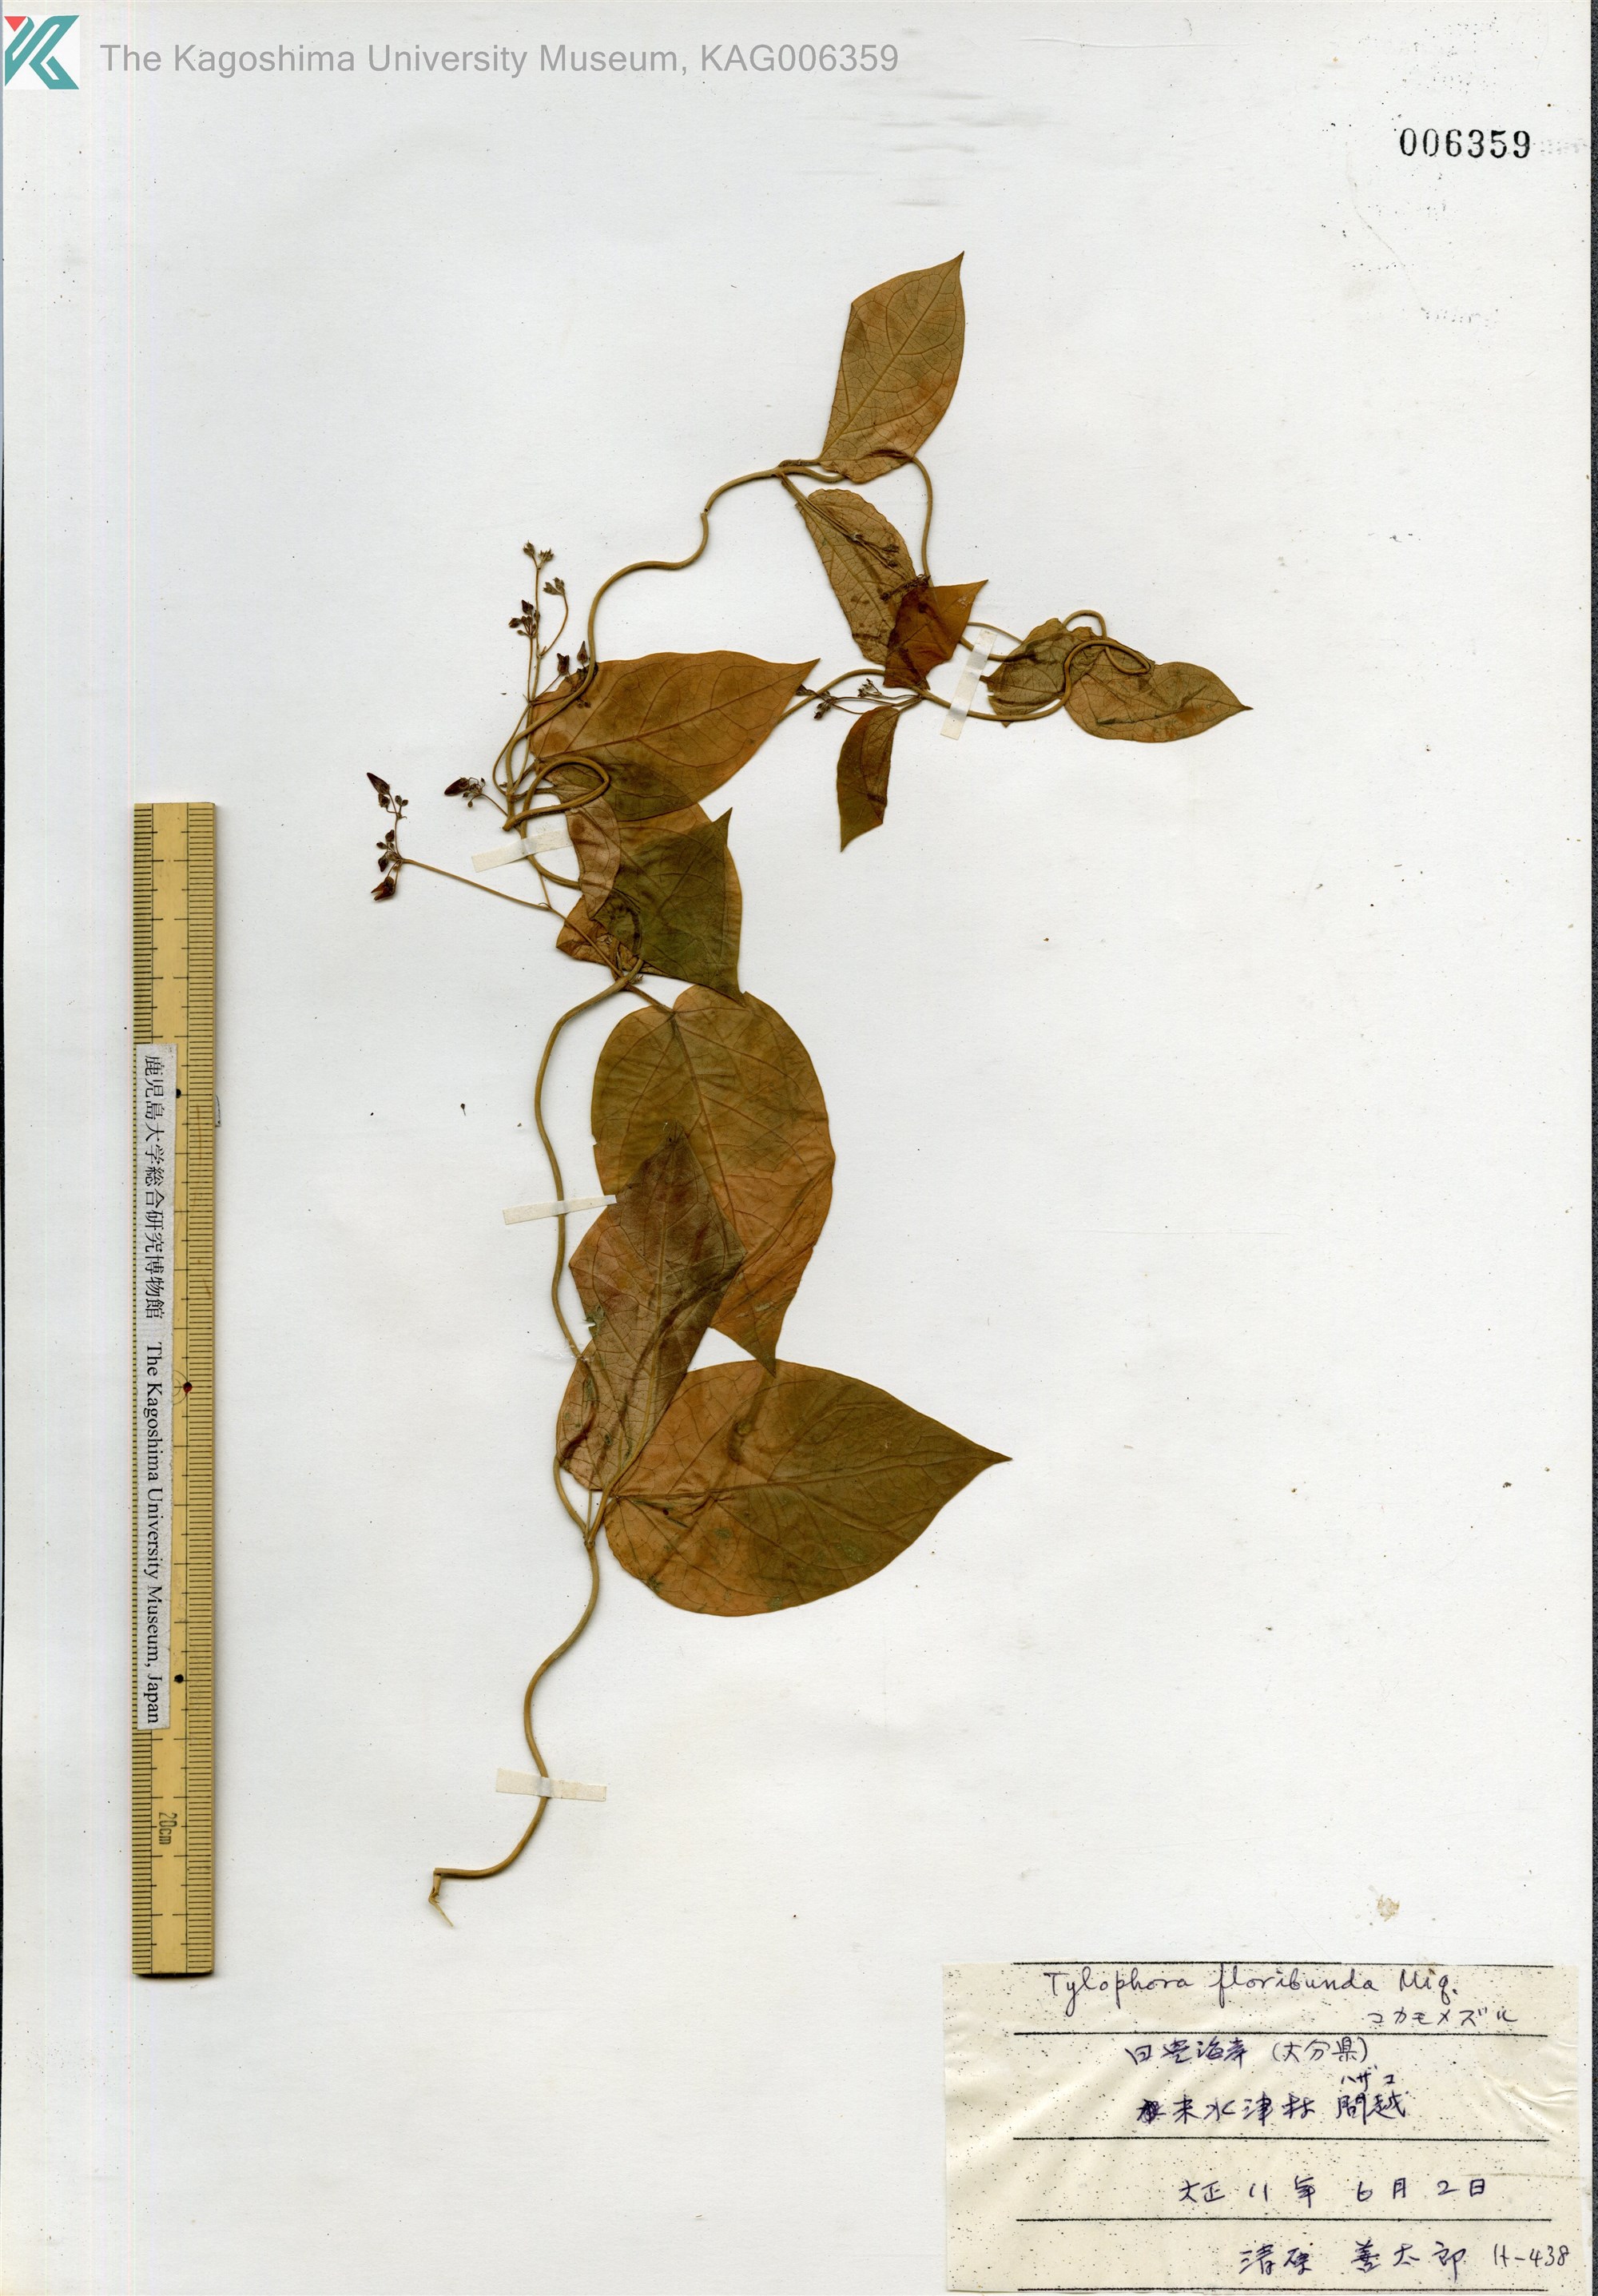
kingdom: Plantae
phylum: Tracheophyta
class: Magnoliopsida
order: Gentianales
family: Apocynaceae
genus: Vincetoxicum
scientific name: Vincetoxicum nikoense
